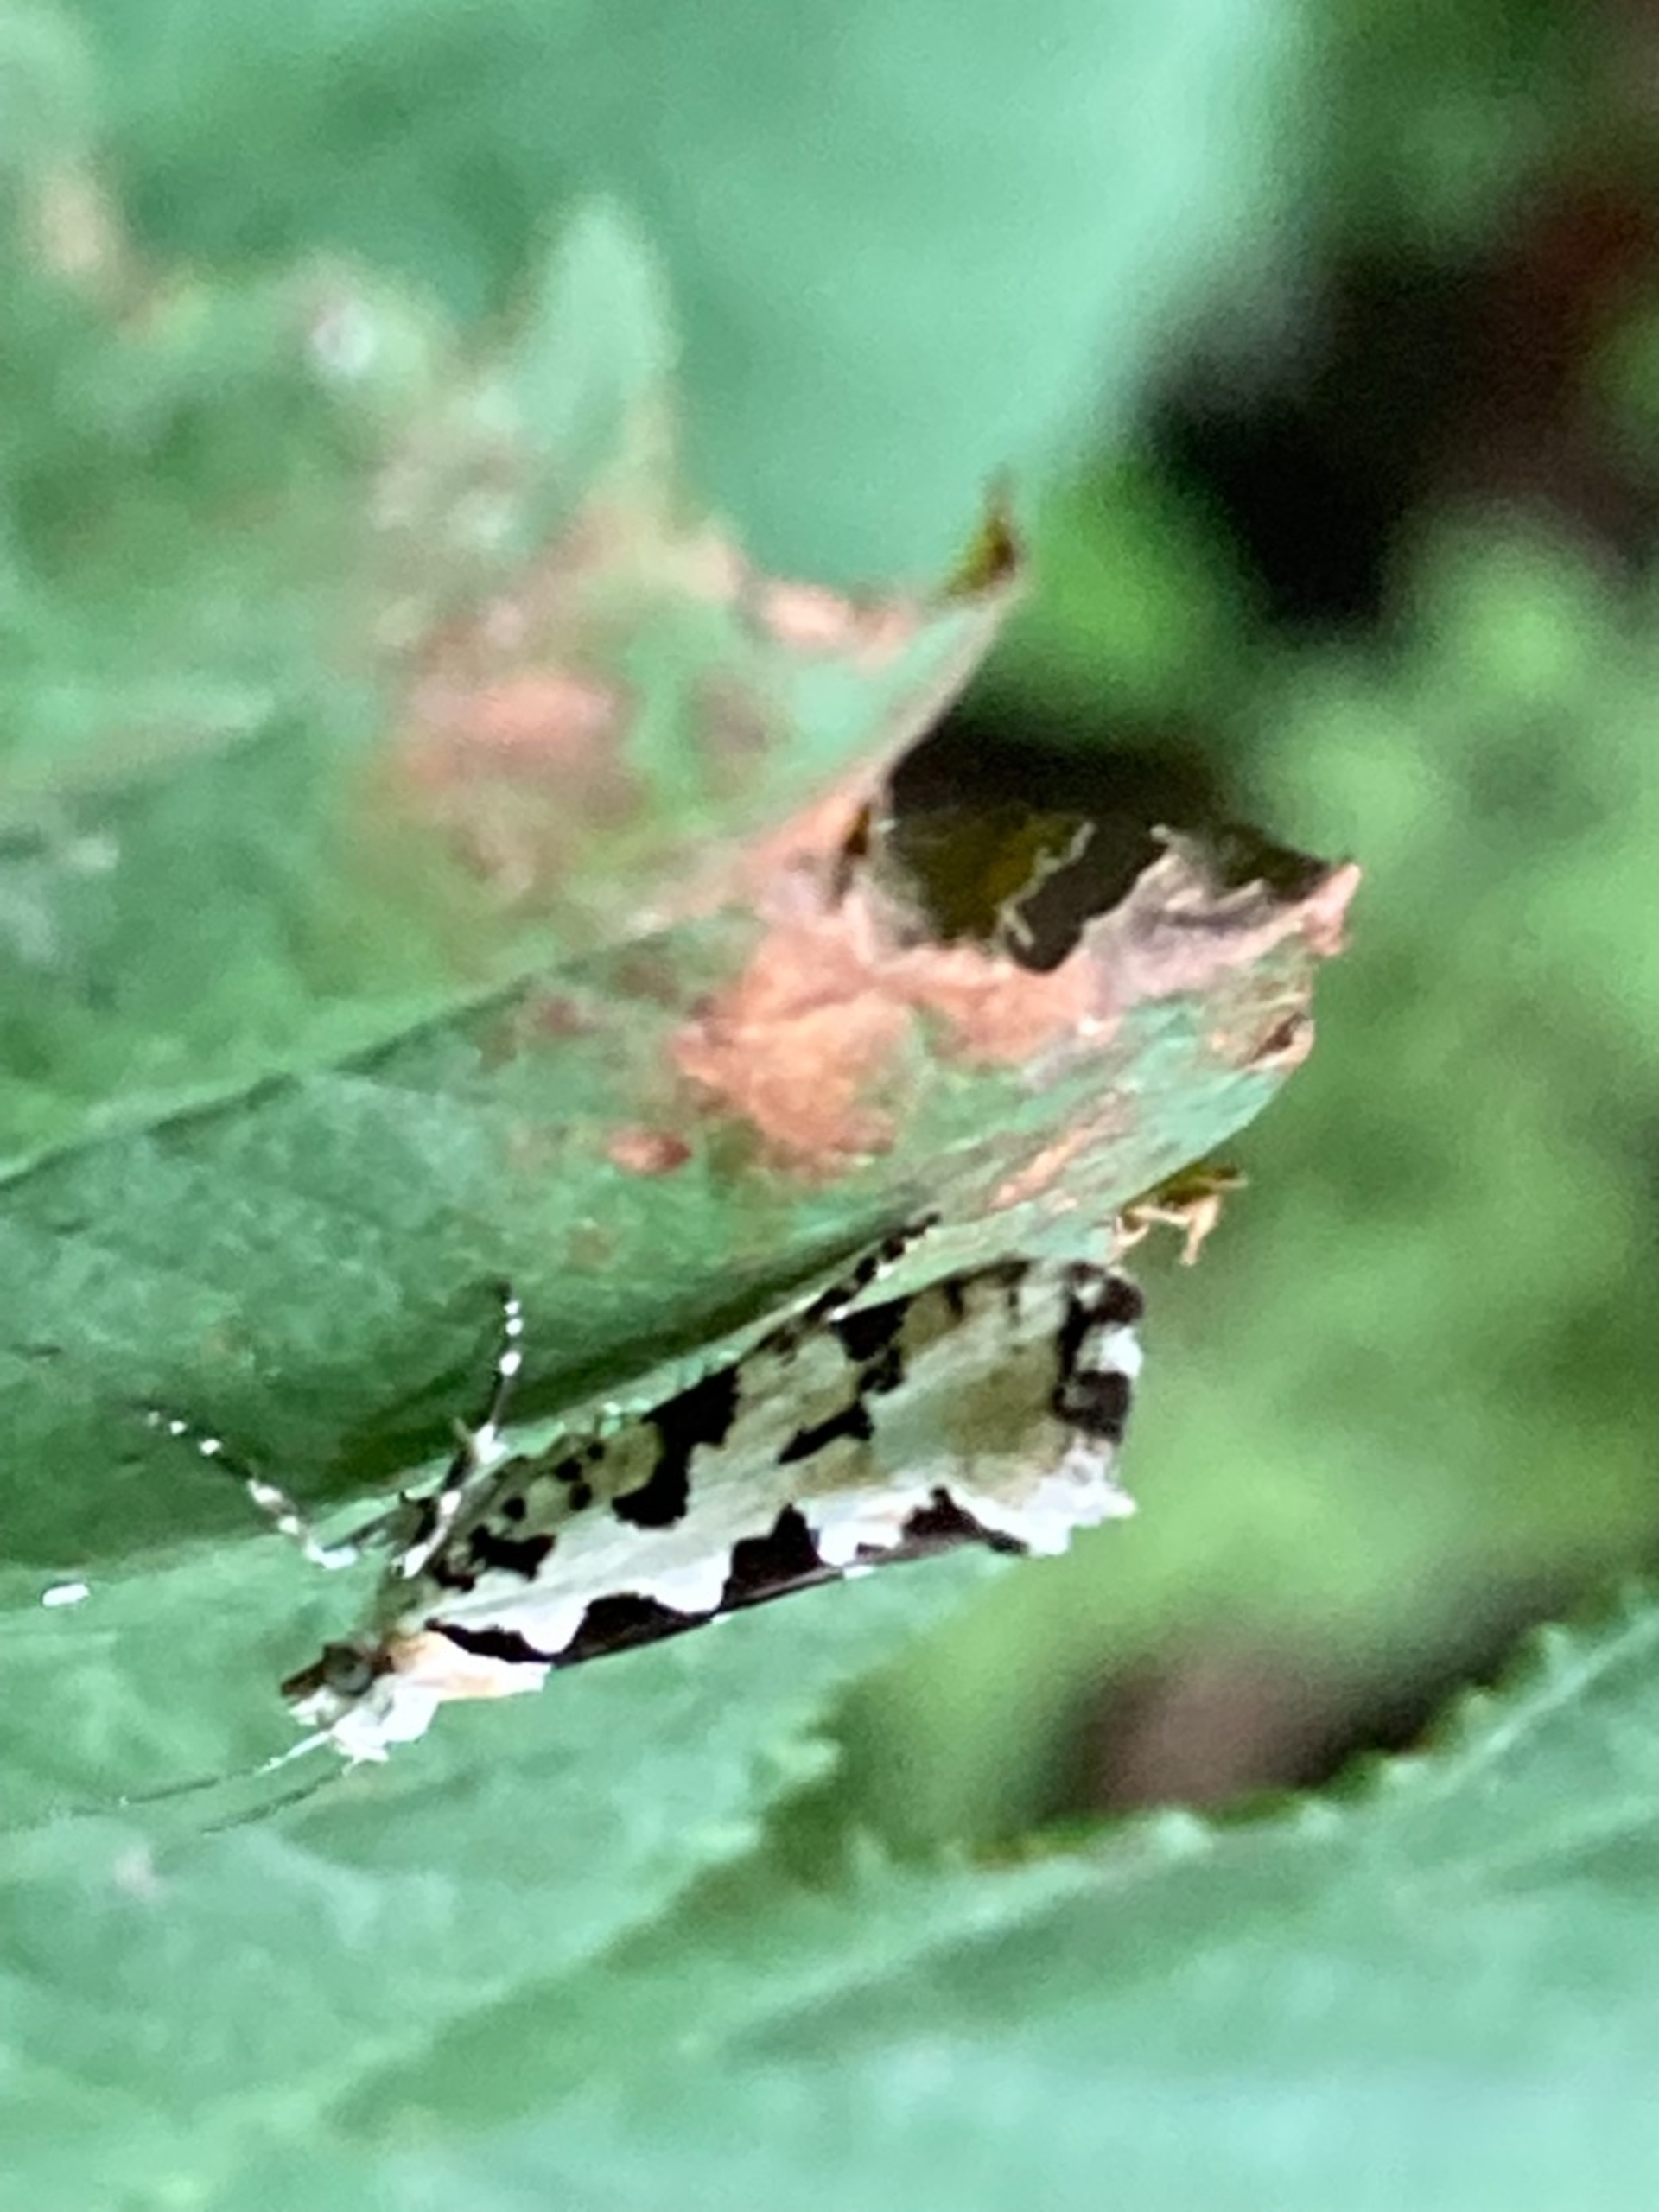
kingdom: Animalia
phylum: Arthropoda
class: Insecta
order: Lepidoptera
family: Plutellidae
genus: Ypsolophus
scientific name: Ypsolophus sequella
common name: Ahornmøl
